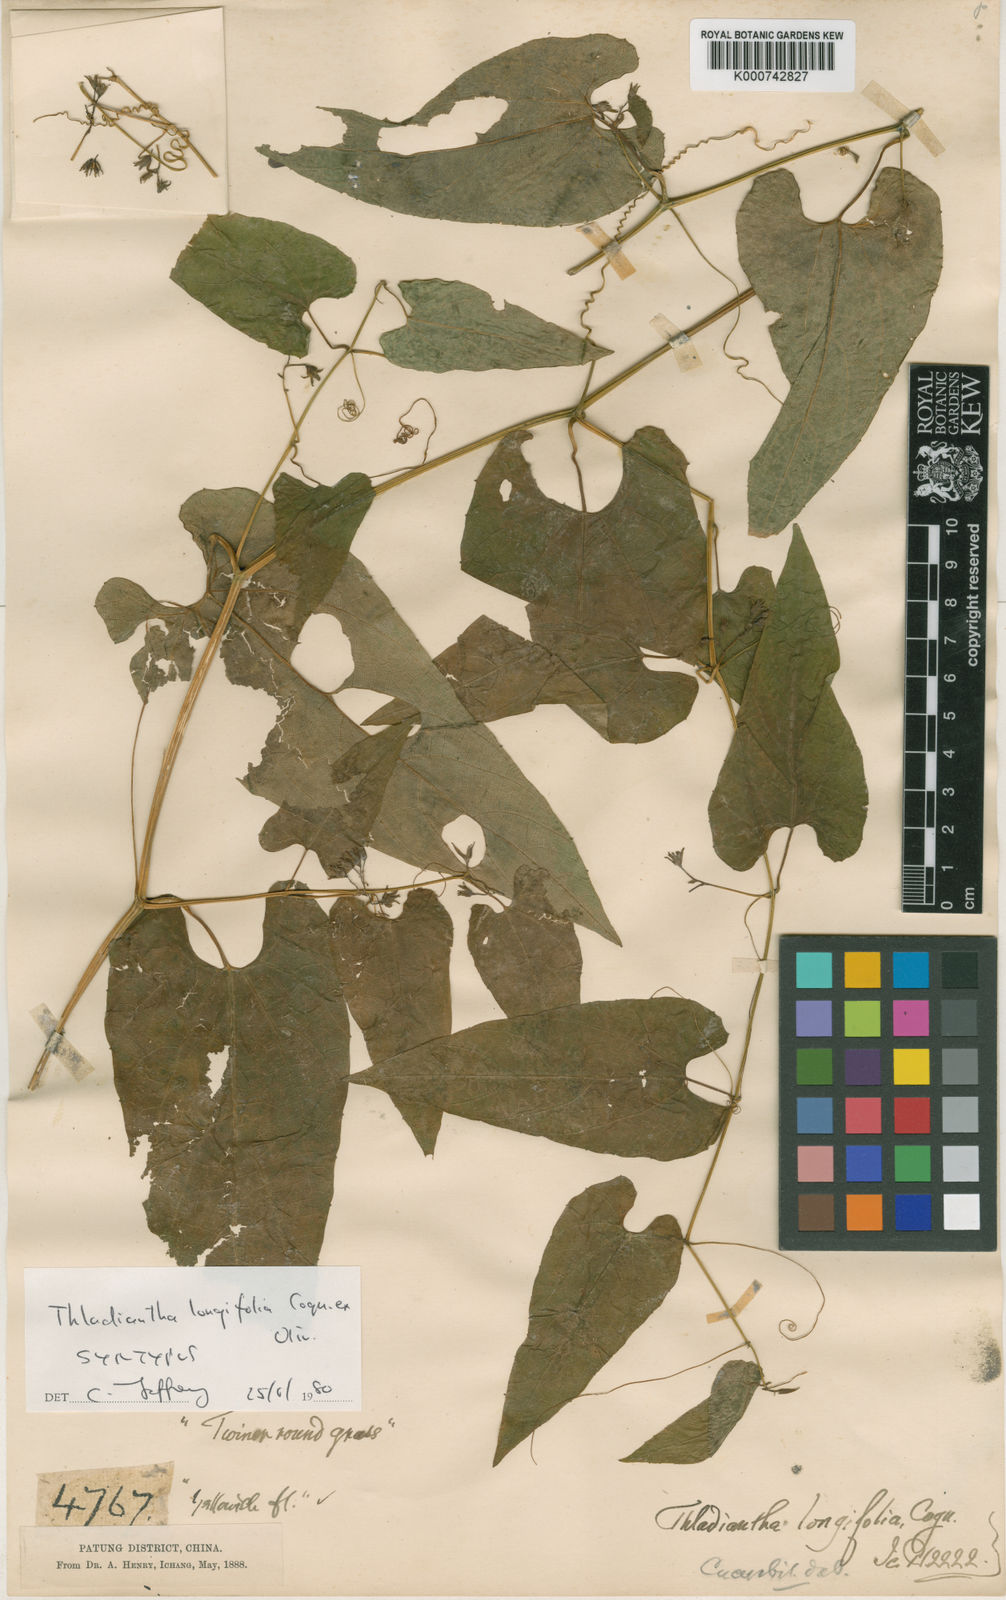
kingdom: Plantae
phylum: Tracheophyta
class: Magnoliopsida
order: Cucurbitales
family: Cucurbitaceae
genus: Thladiantha
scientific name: Thladiantha longifolia
